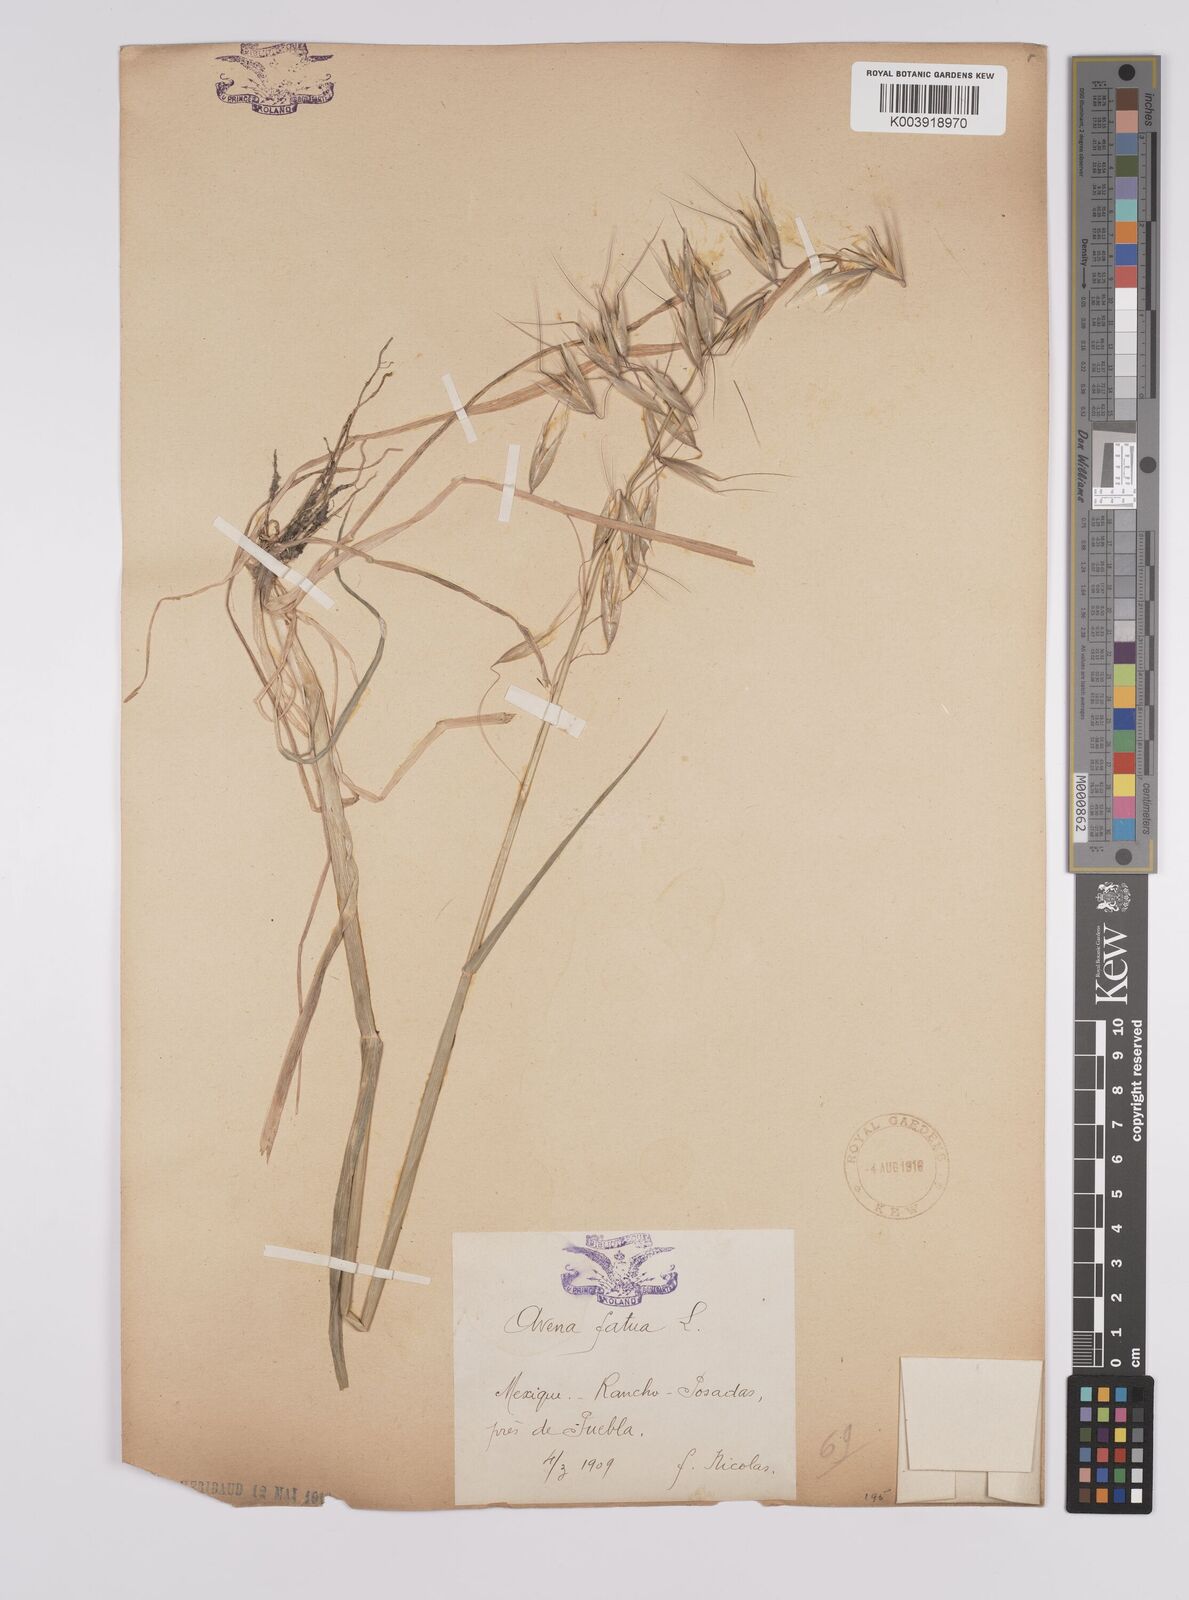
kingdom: Plantae
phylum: Tracheophyta
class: Liliopsida
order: Poales
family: Poaceae
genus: Avena
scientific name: Avena fatua
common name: Wild oat
